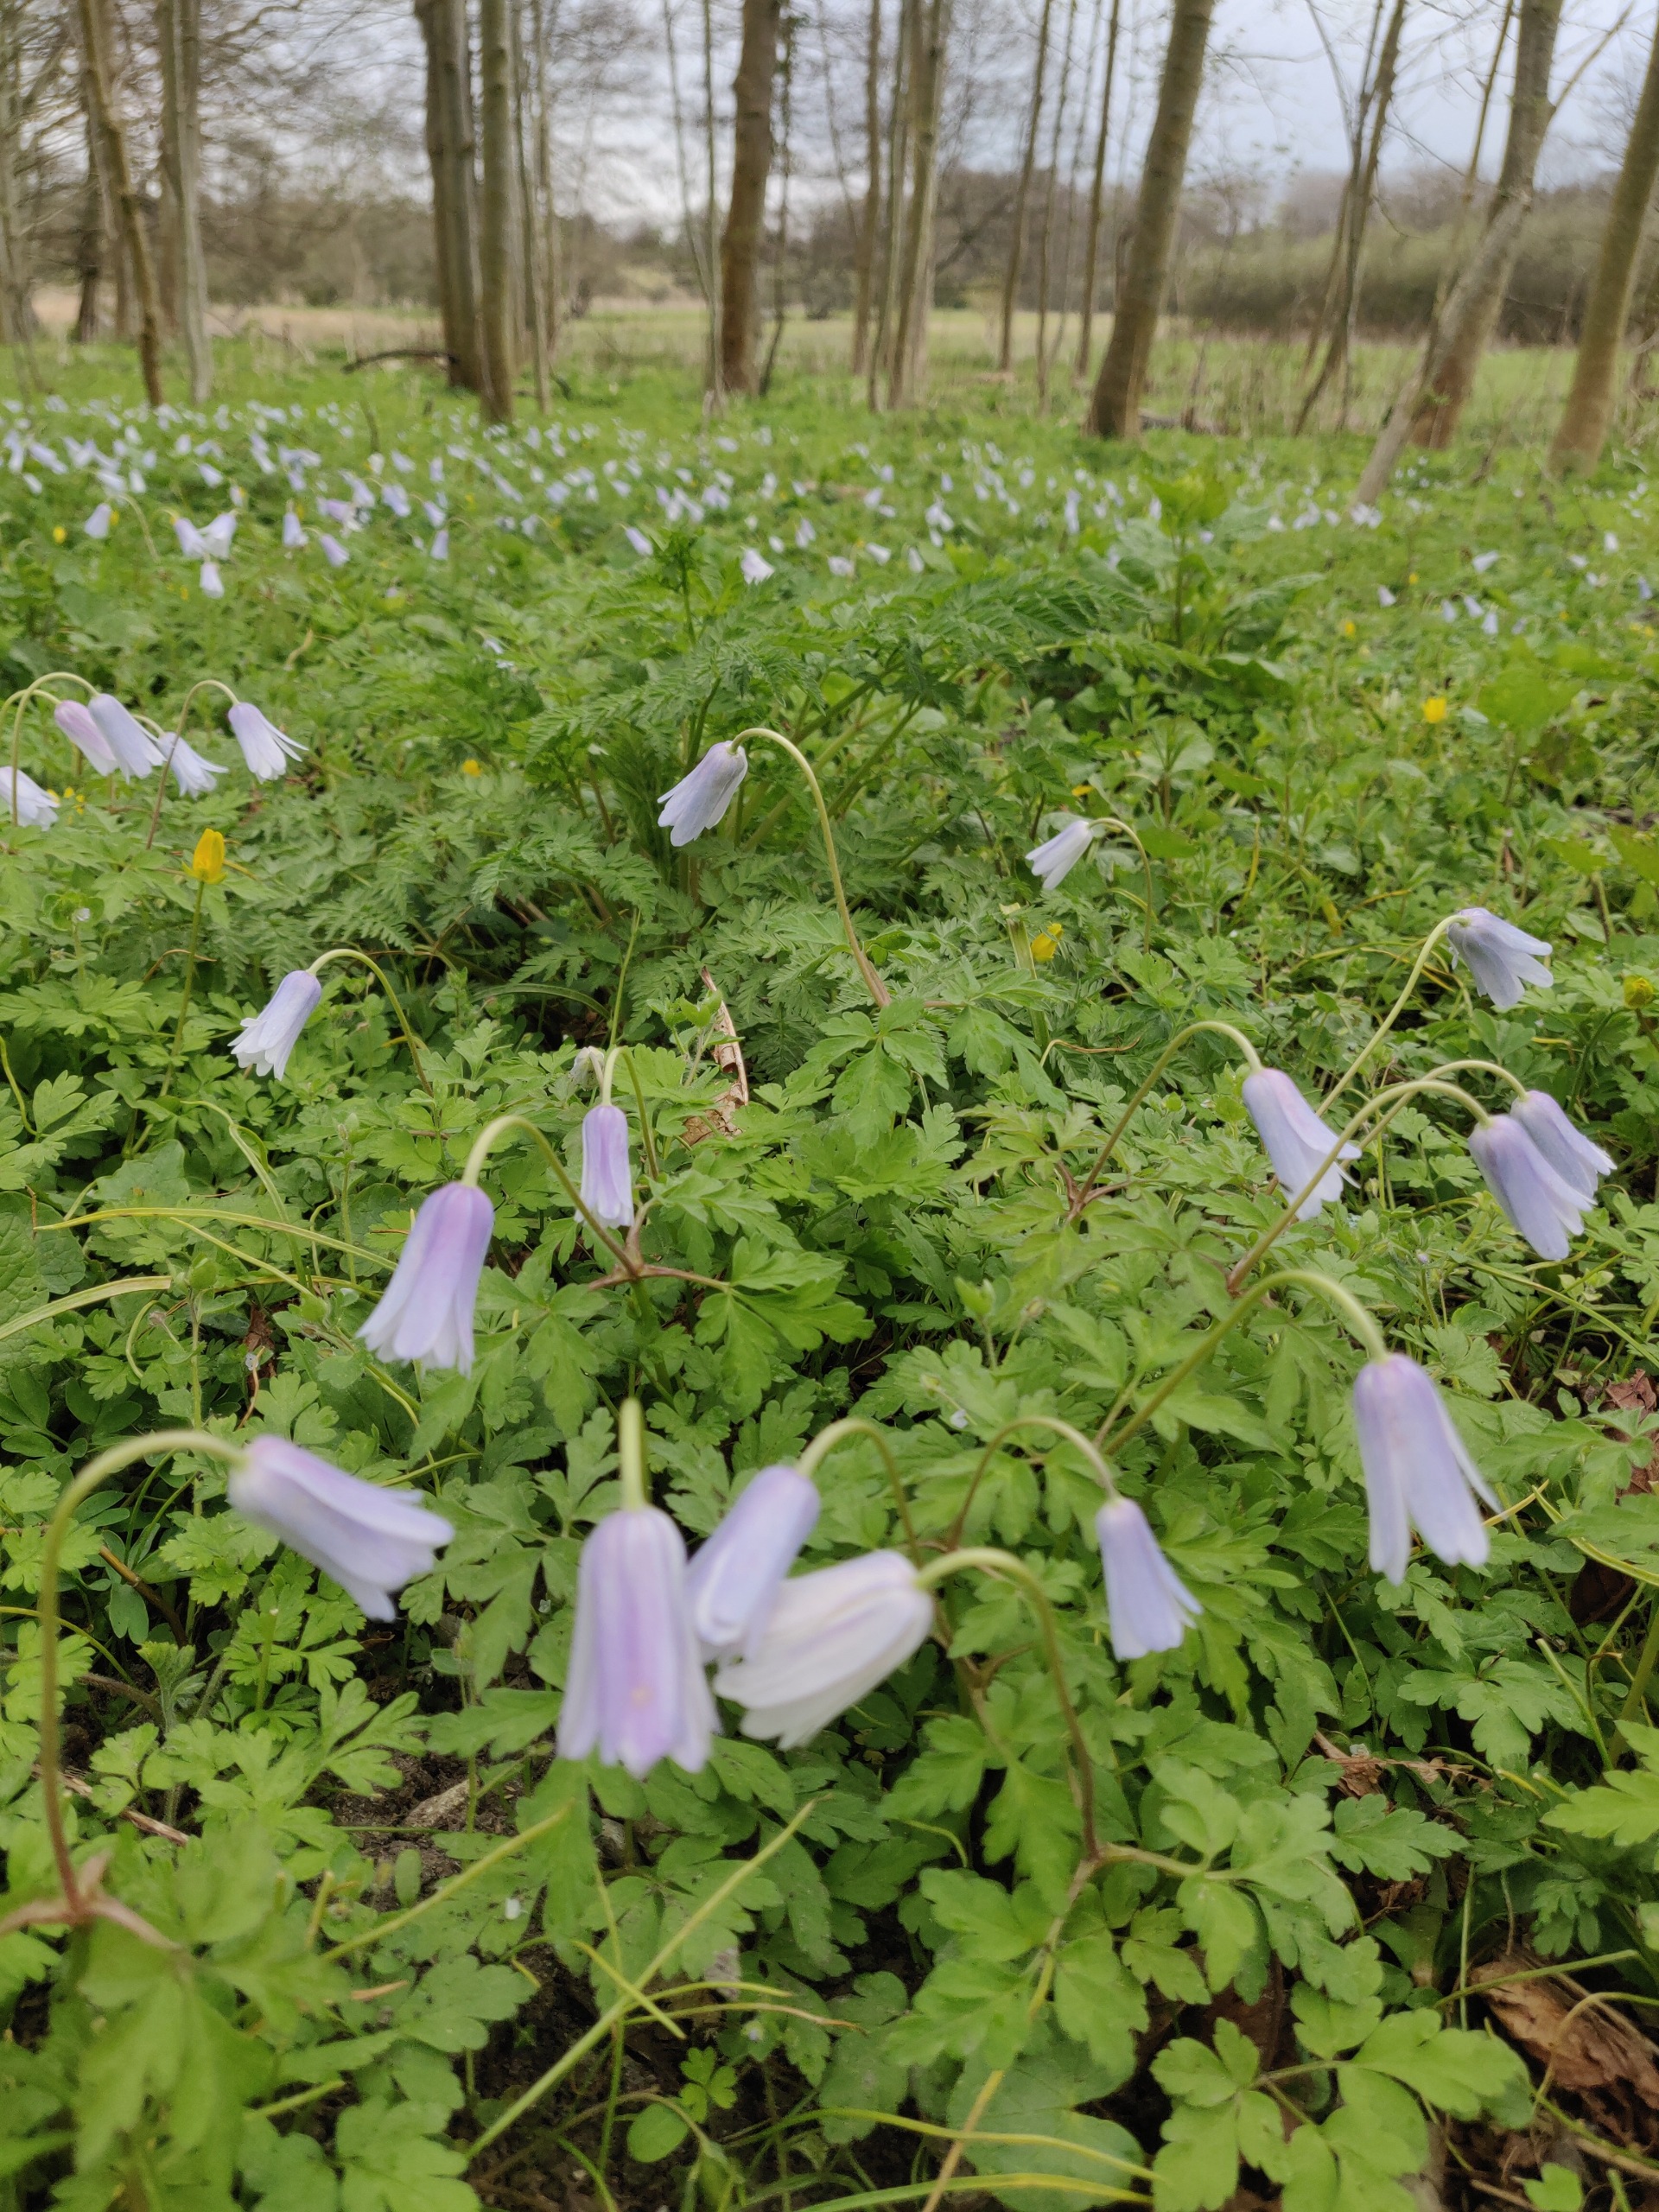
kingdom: Plantae
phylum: Tracheophyta
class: Magnoliopsida
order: Ranunculales
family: Ranunculaceae
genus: Anemone
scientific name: Anemone apennina
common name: Apenniner-anemone
